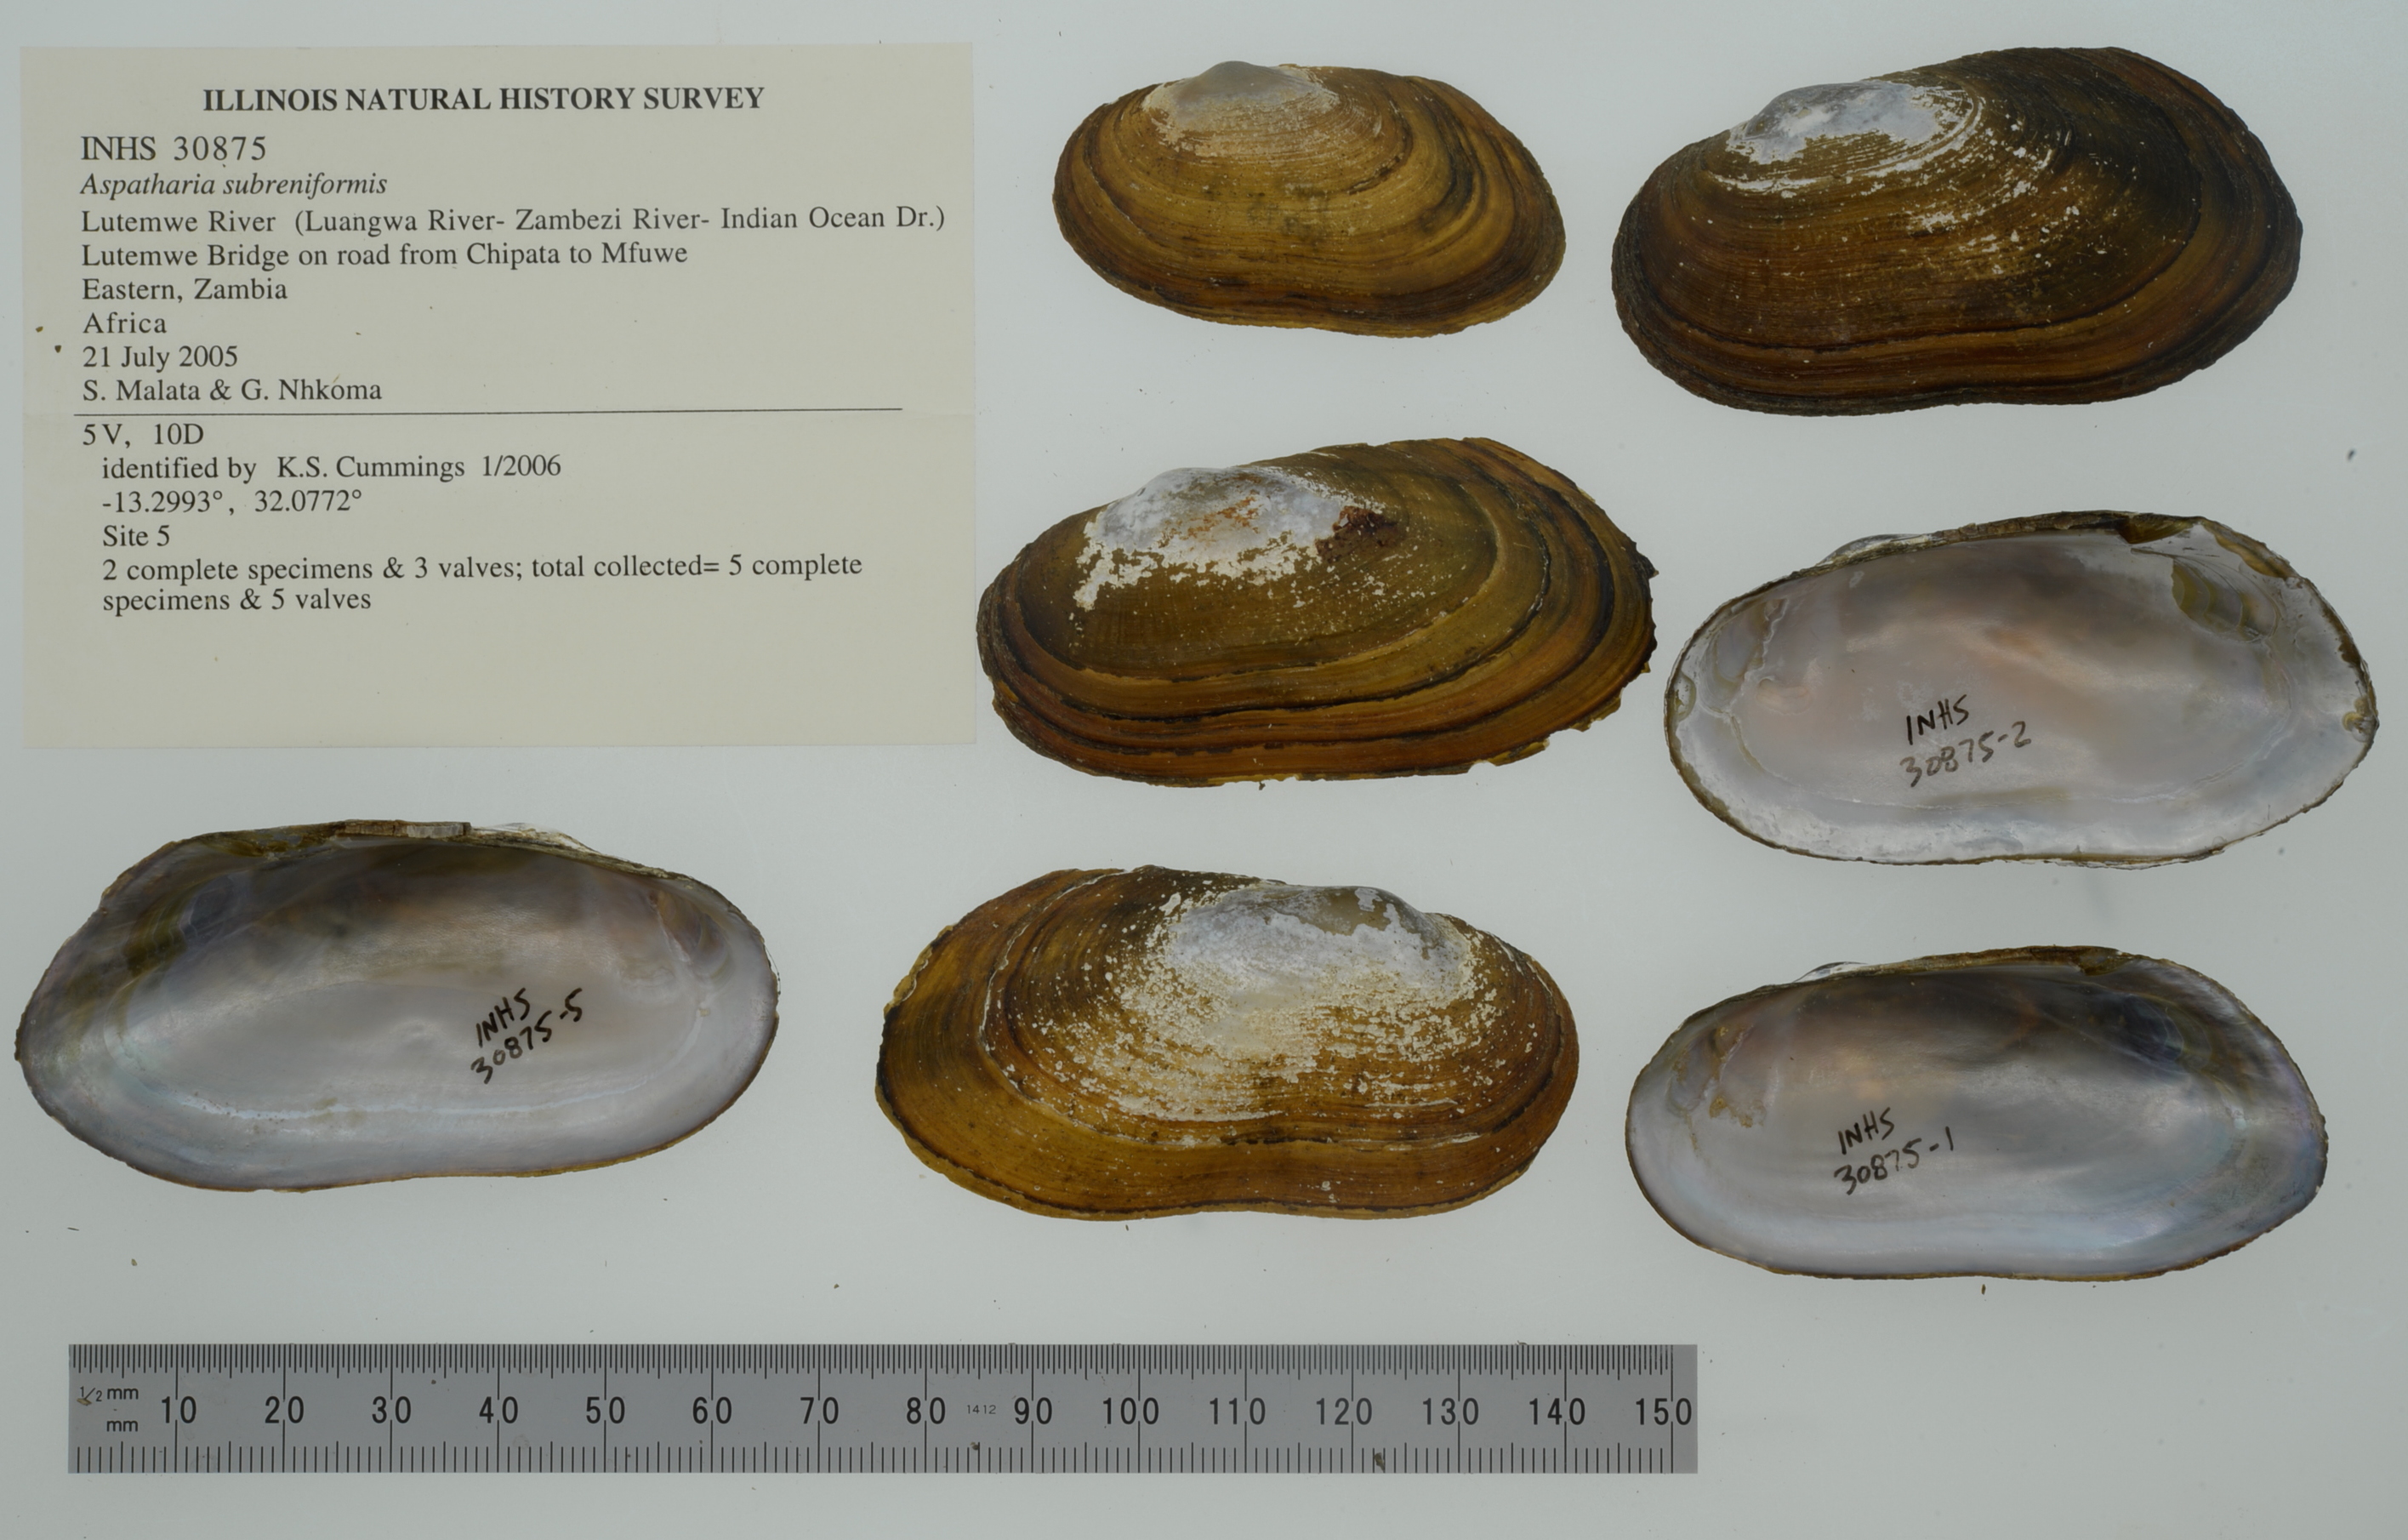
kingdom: Animalia
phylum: Mollusca
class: Bivalvia
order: Unionida
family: Iridinidae
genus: Aspatharia
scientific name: Aspatharia subreniformis
